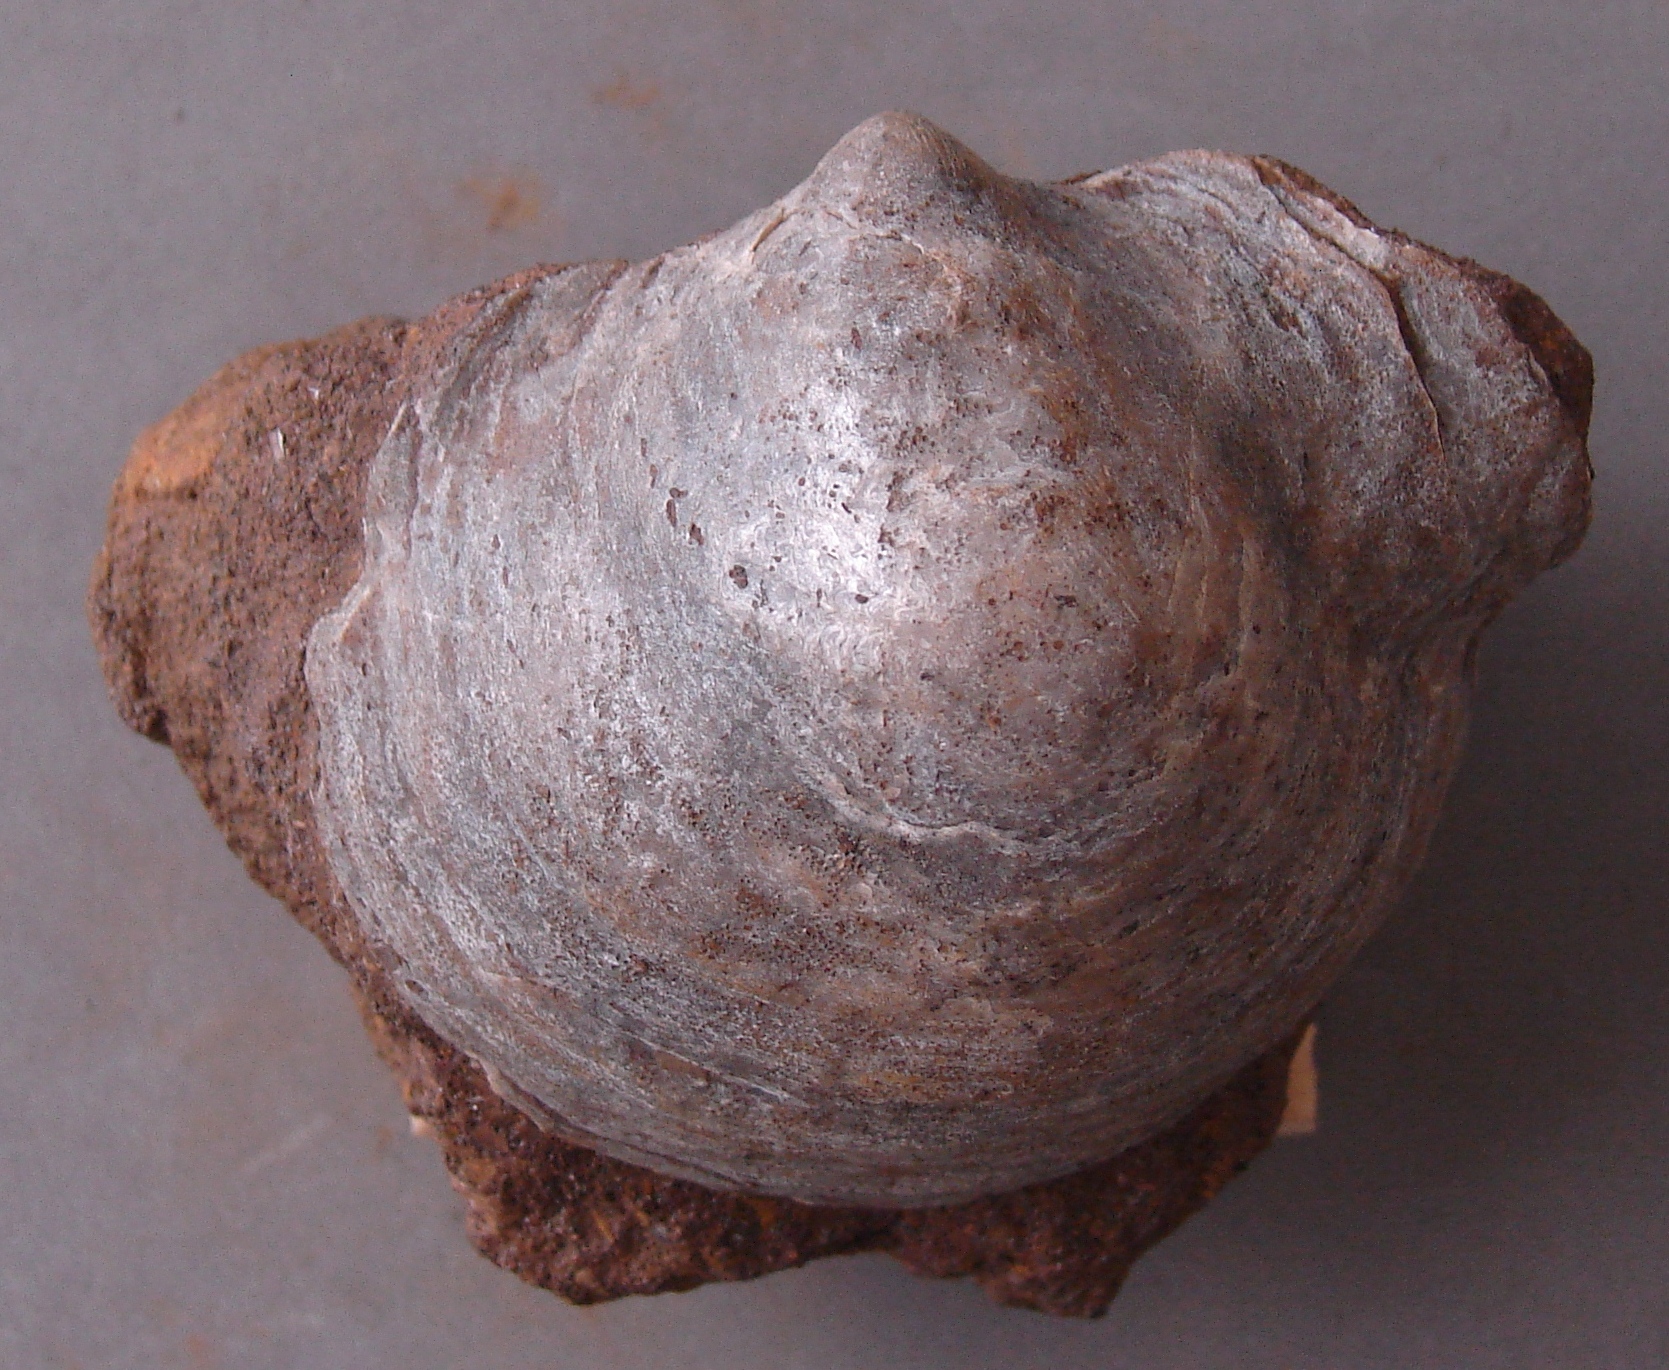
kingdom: Animalia
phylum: Mollusca
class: Bivalvia
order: Ostreida
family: Gryphaeidae
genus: Gryphaea
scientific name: Gryphaea
